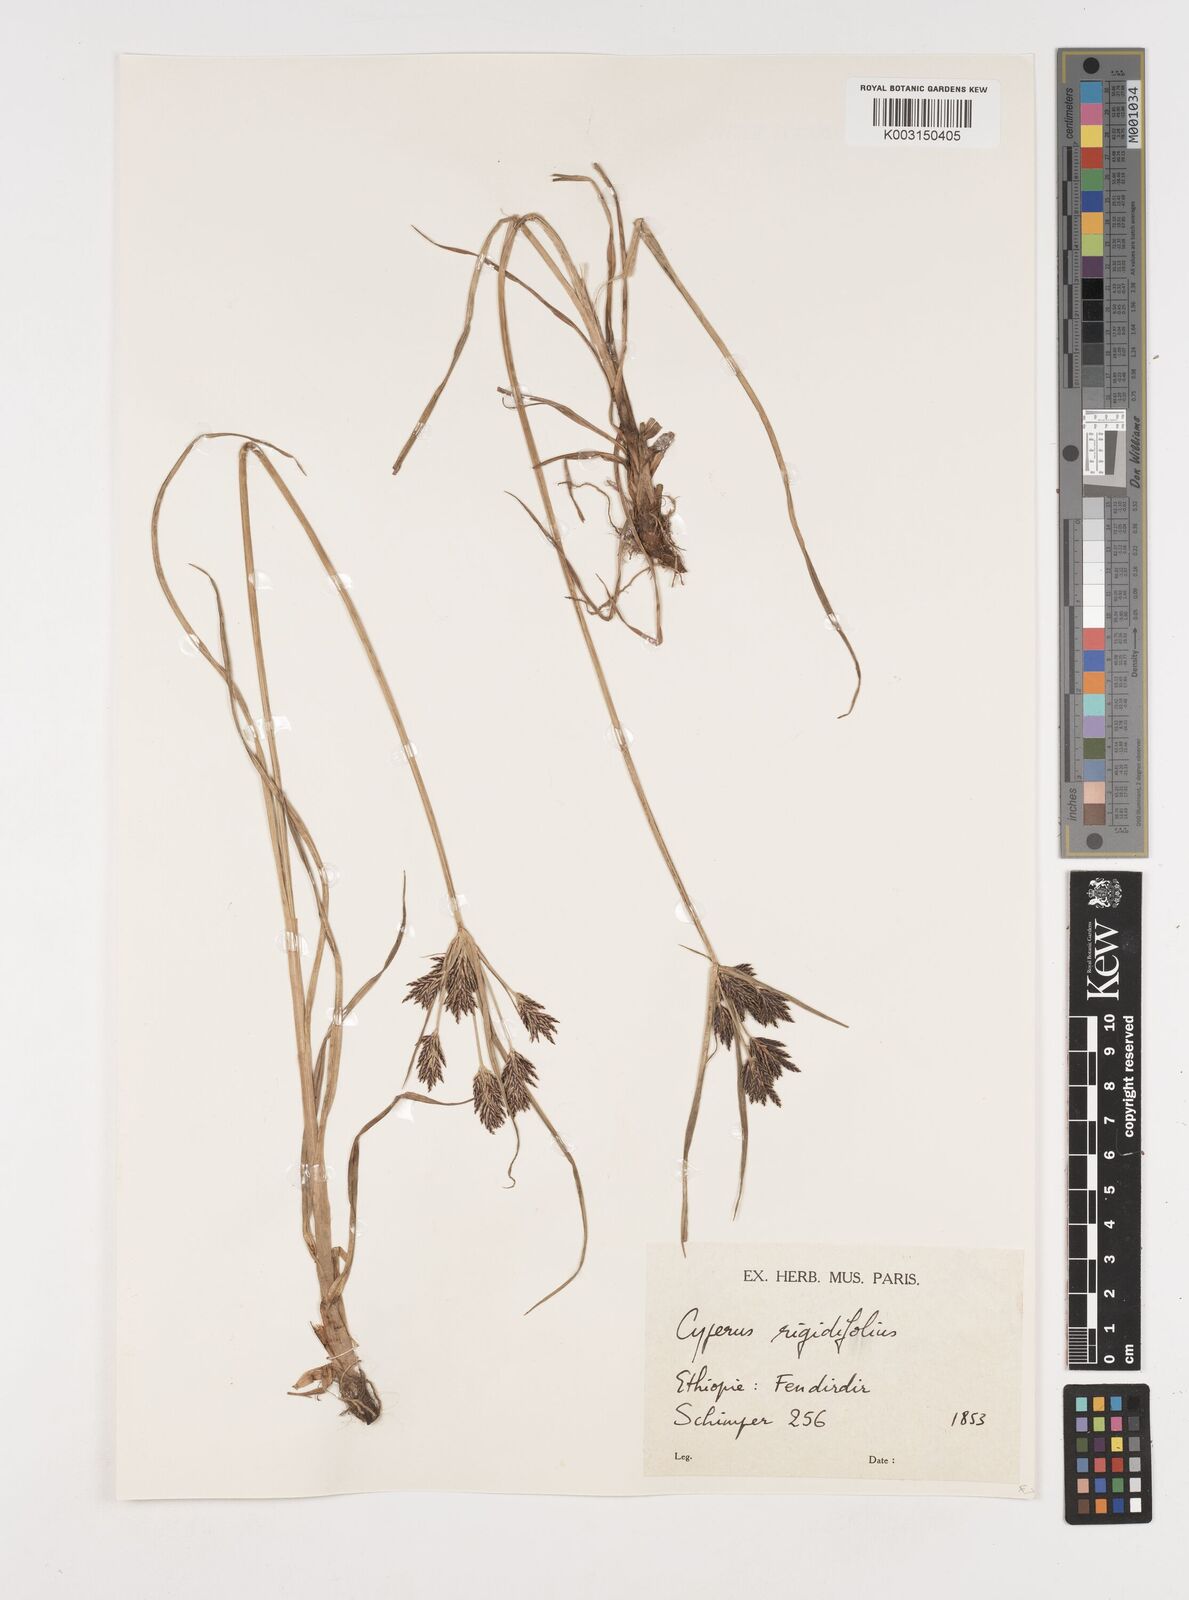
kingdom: Plantae
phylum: Tracheophyta
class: Liliopsida
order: Poales
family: Cyperaceae
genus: Cyperus
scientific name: Cyperus rigidifolius
